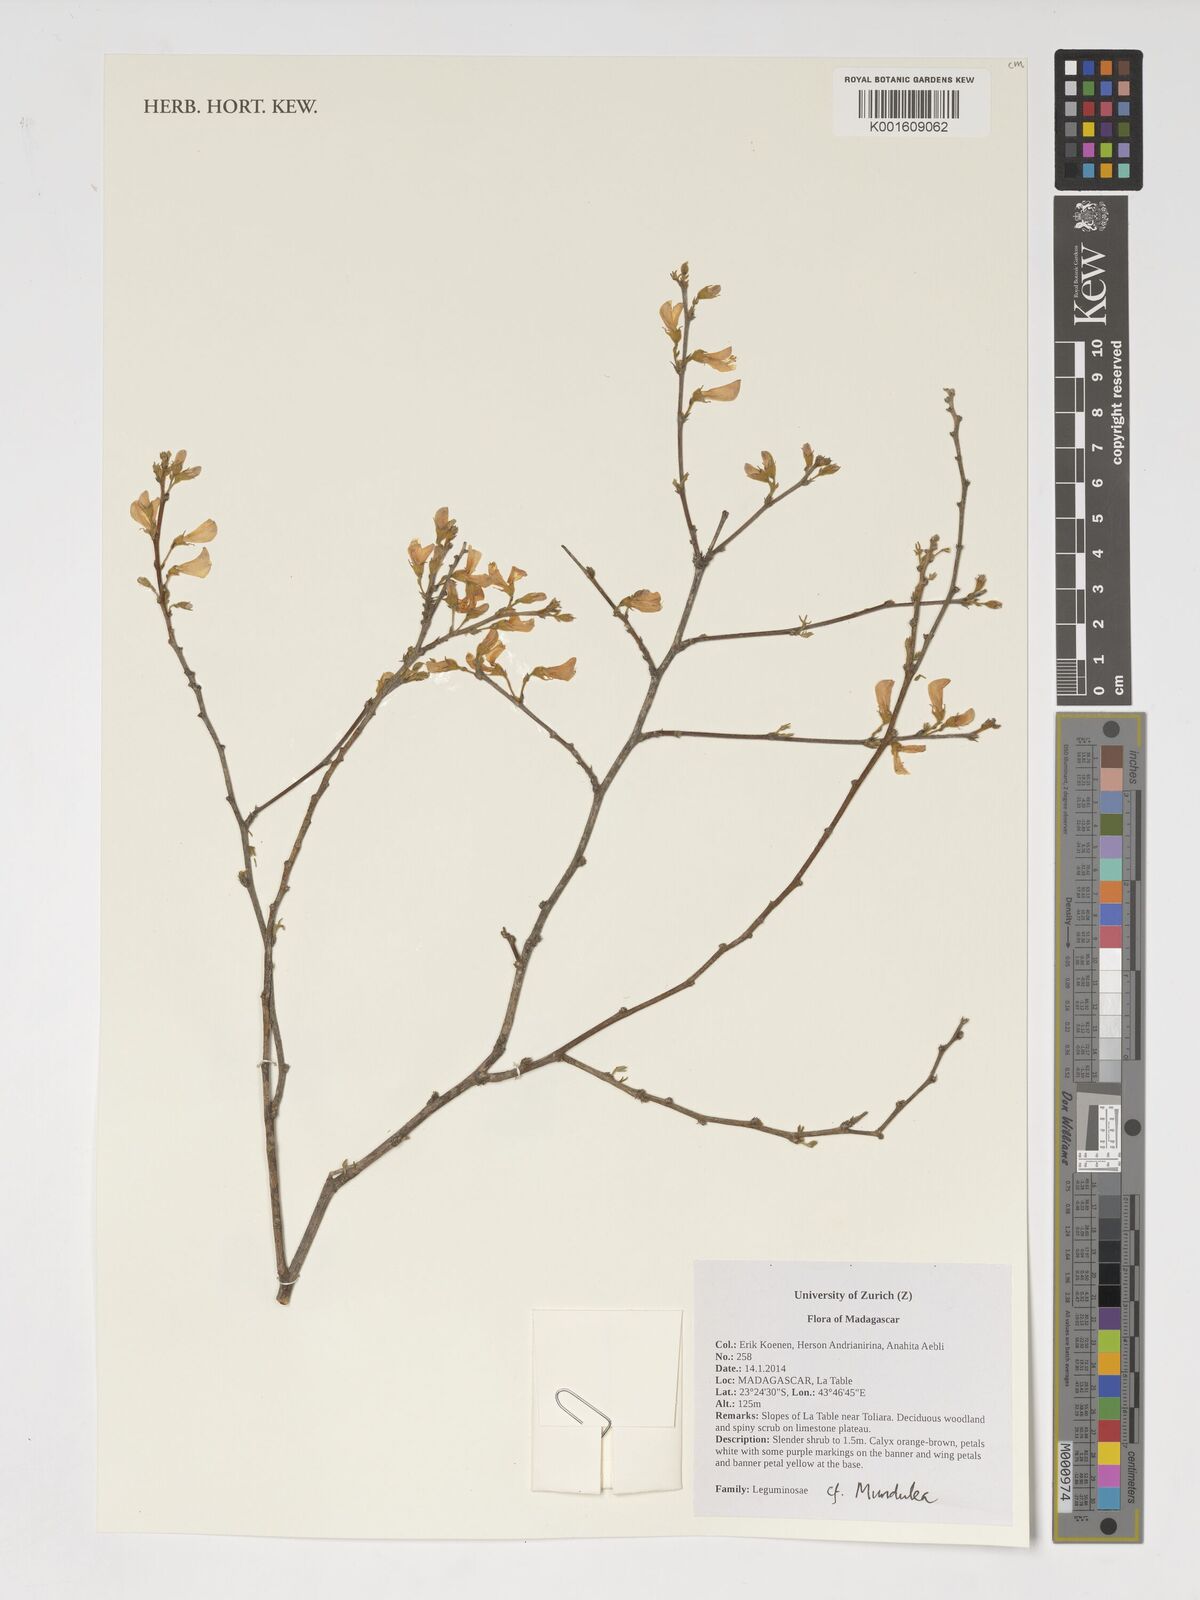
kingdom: Plantae
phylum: Tracheophyta
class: Magnoliopsida
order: Fabales
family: Fabaceae
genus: Mundulea
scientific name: Mundulea
